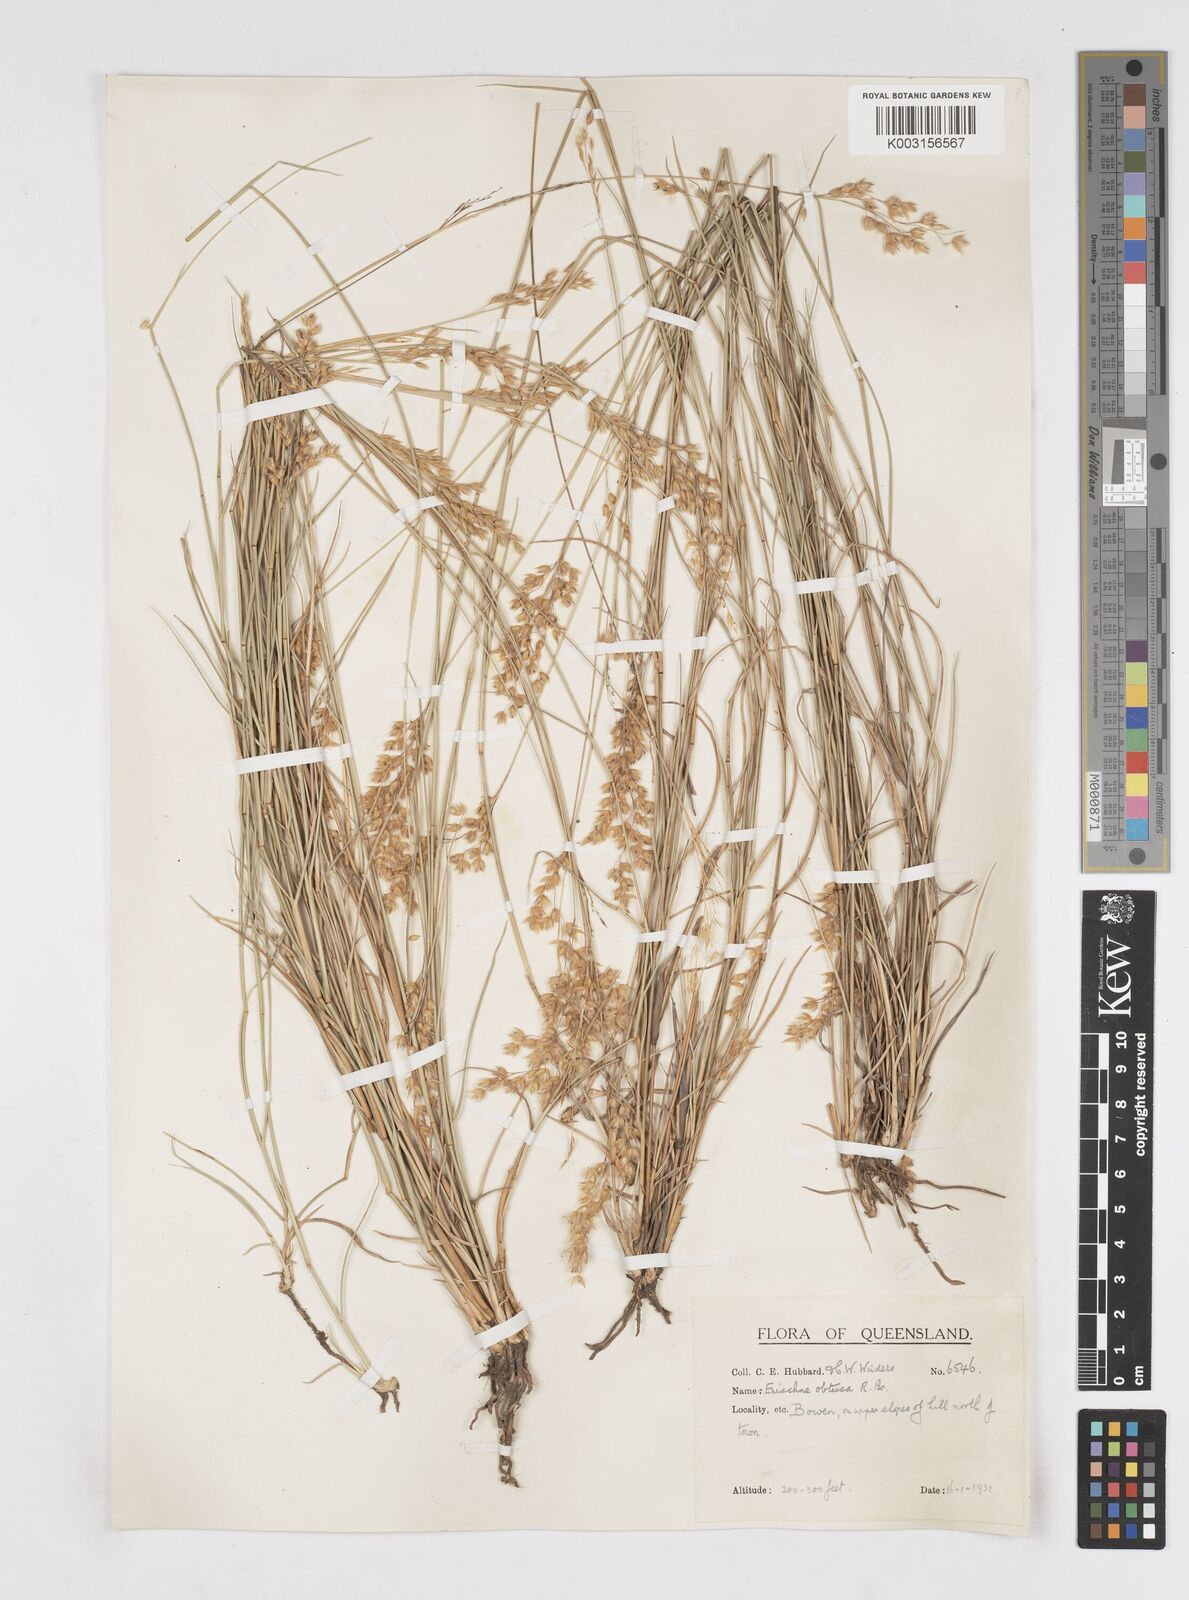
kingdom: Plantae
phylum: Tracheophyta
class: Liliopsida
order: Poales
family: Poaceae
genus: Eriachne
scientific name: Eriachne obtusa
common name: Northern wanderrie grass
